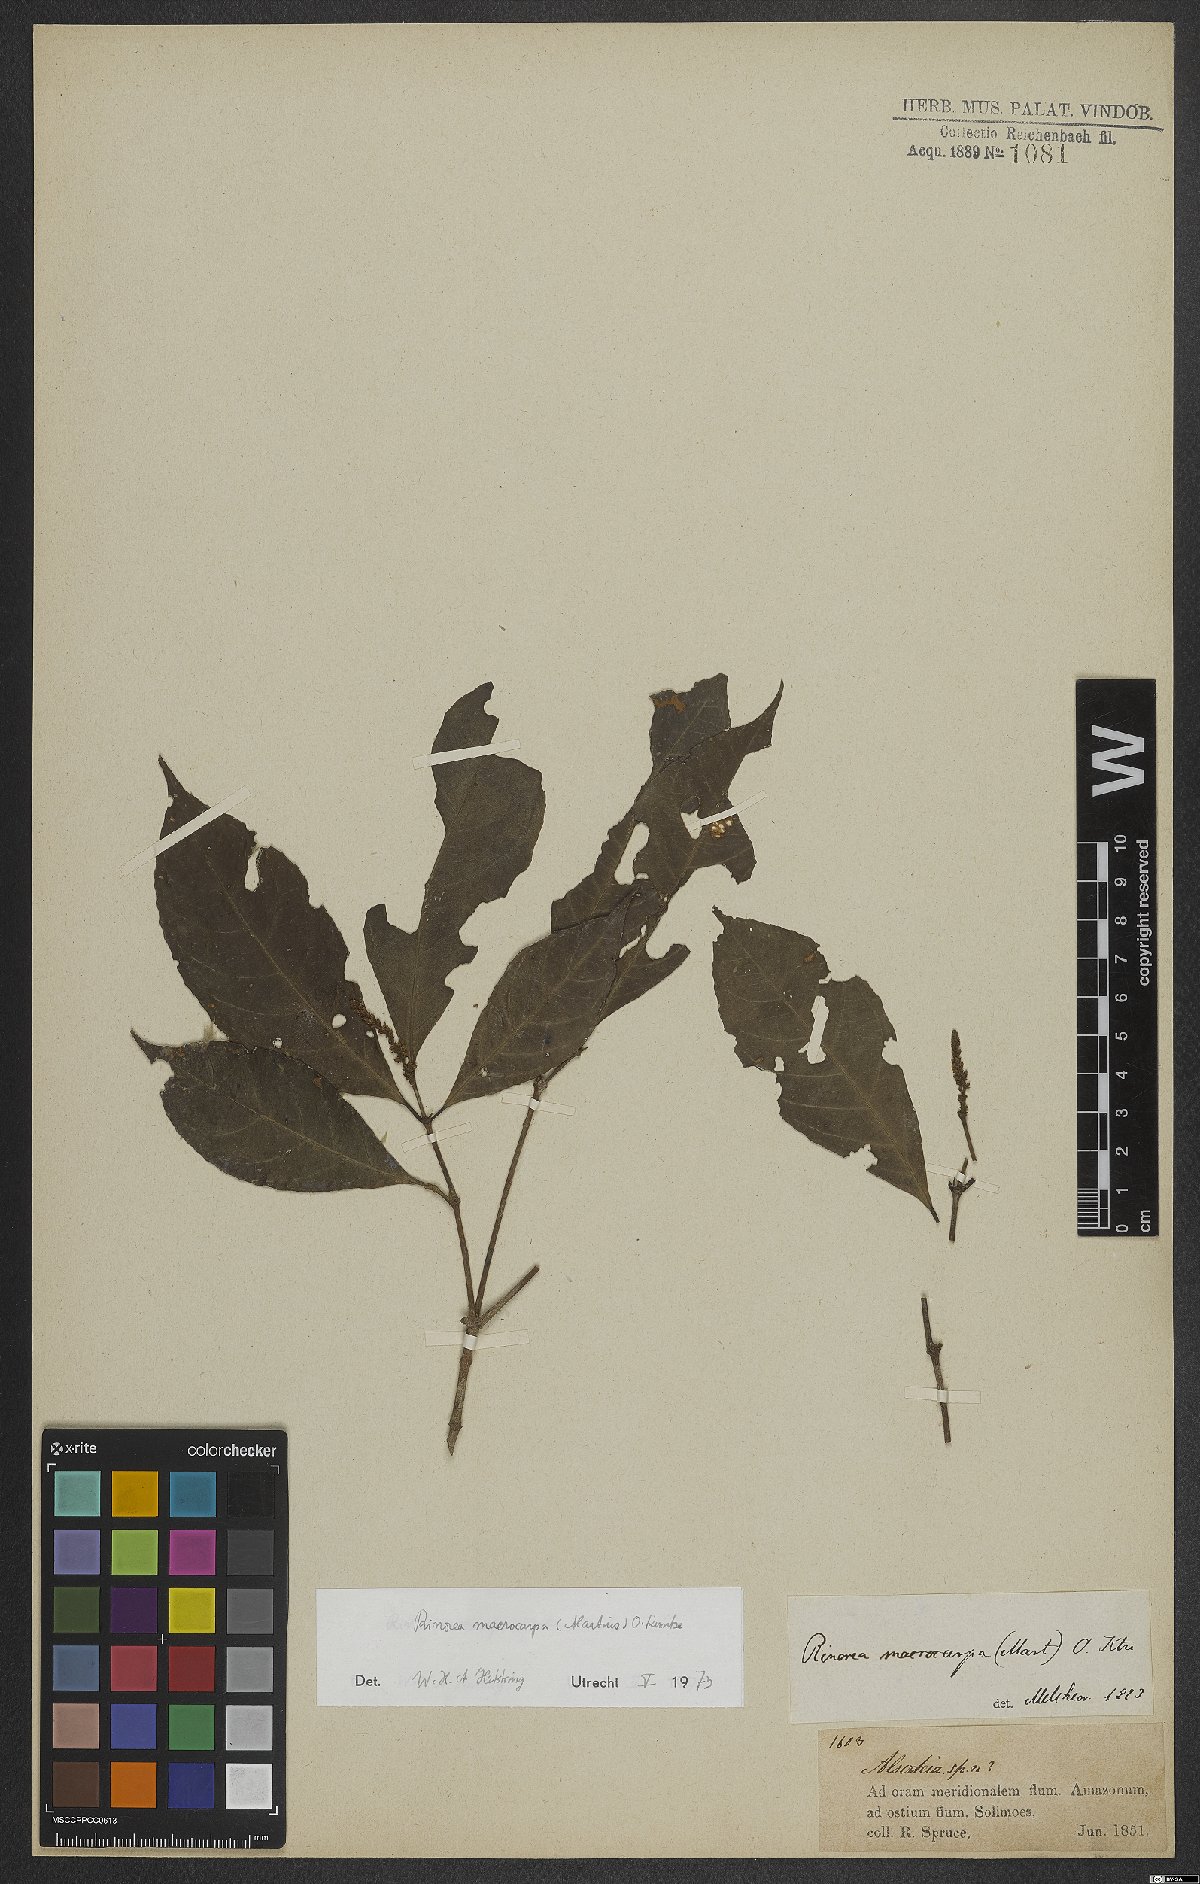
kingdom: Plantae
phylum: Tracheophyta
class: Magnoliopsida
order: Malpighiales
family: Violaceae
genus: Rinorea
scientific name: Rinorea macrocarpa
